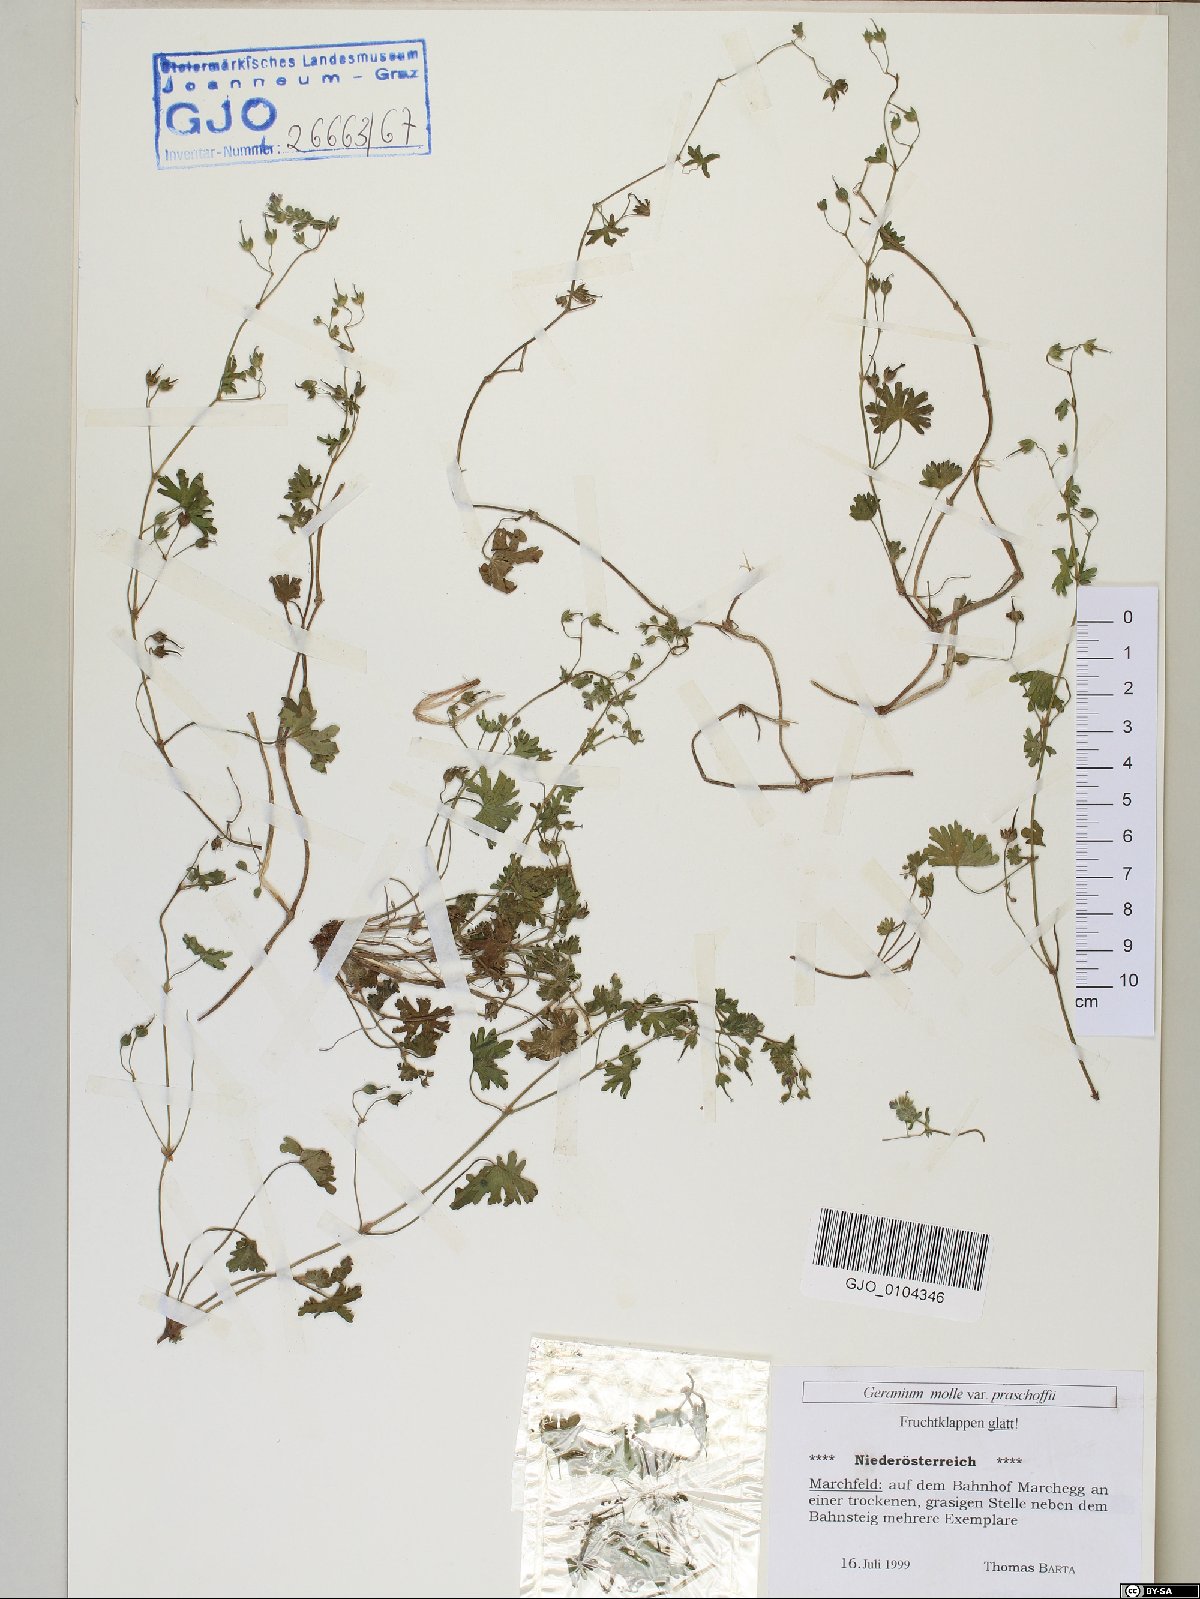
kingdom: Plantae
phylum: Tracheophyta
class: Magnoliopsida
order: Geraniales
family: Geraniaceae
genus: Geranium
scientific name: Geranium aequale
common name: Geranium
